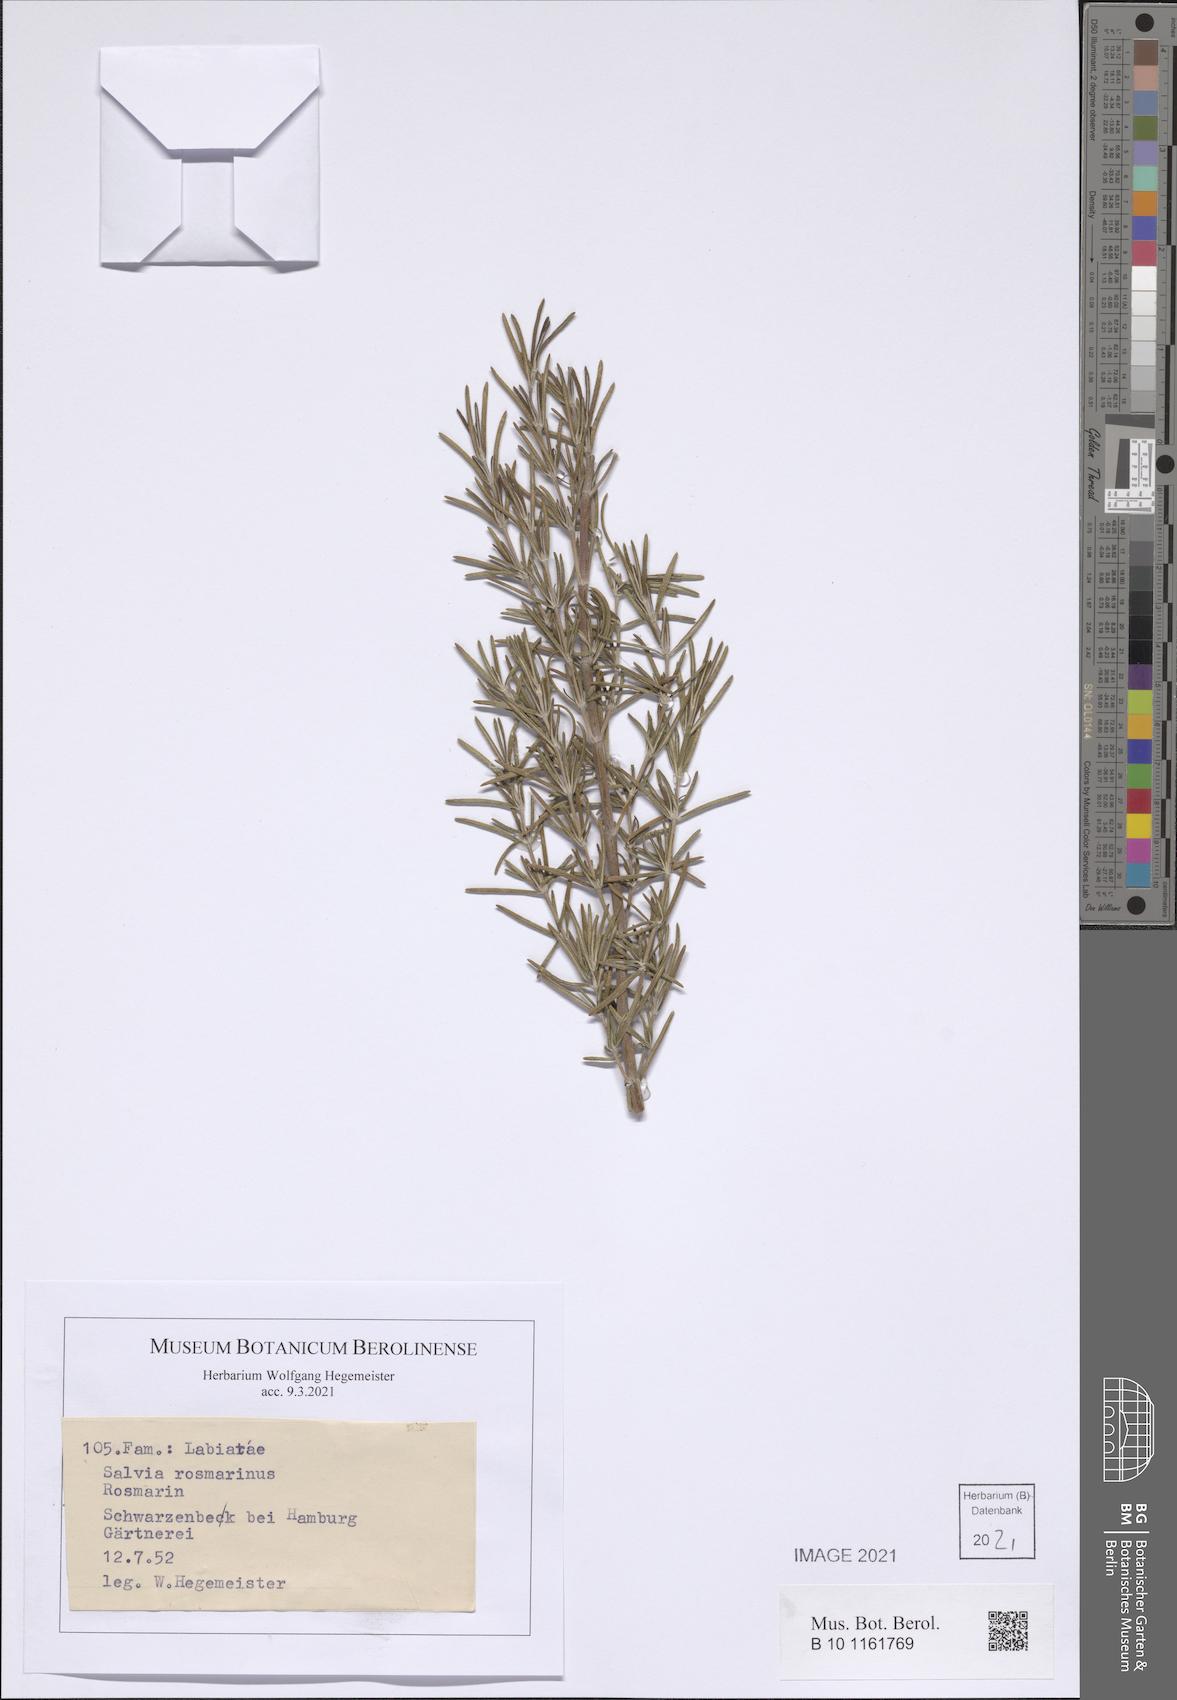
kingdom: Plantae
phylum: Tracheophyta
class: Magnoliopsida
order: Lamiales
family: Lamiaceae
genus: Salvia
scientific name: Salvia rosmarinus
